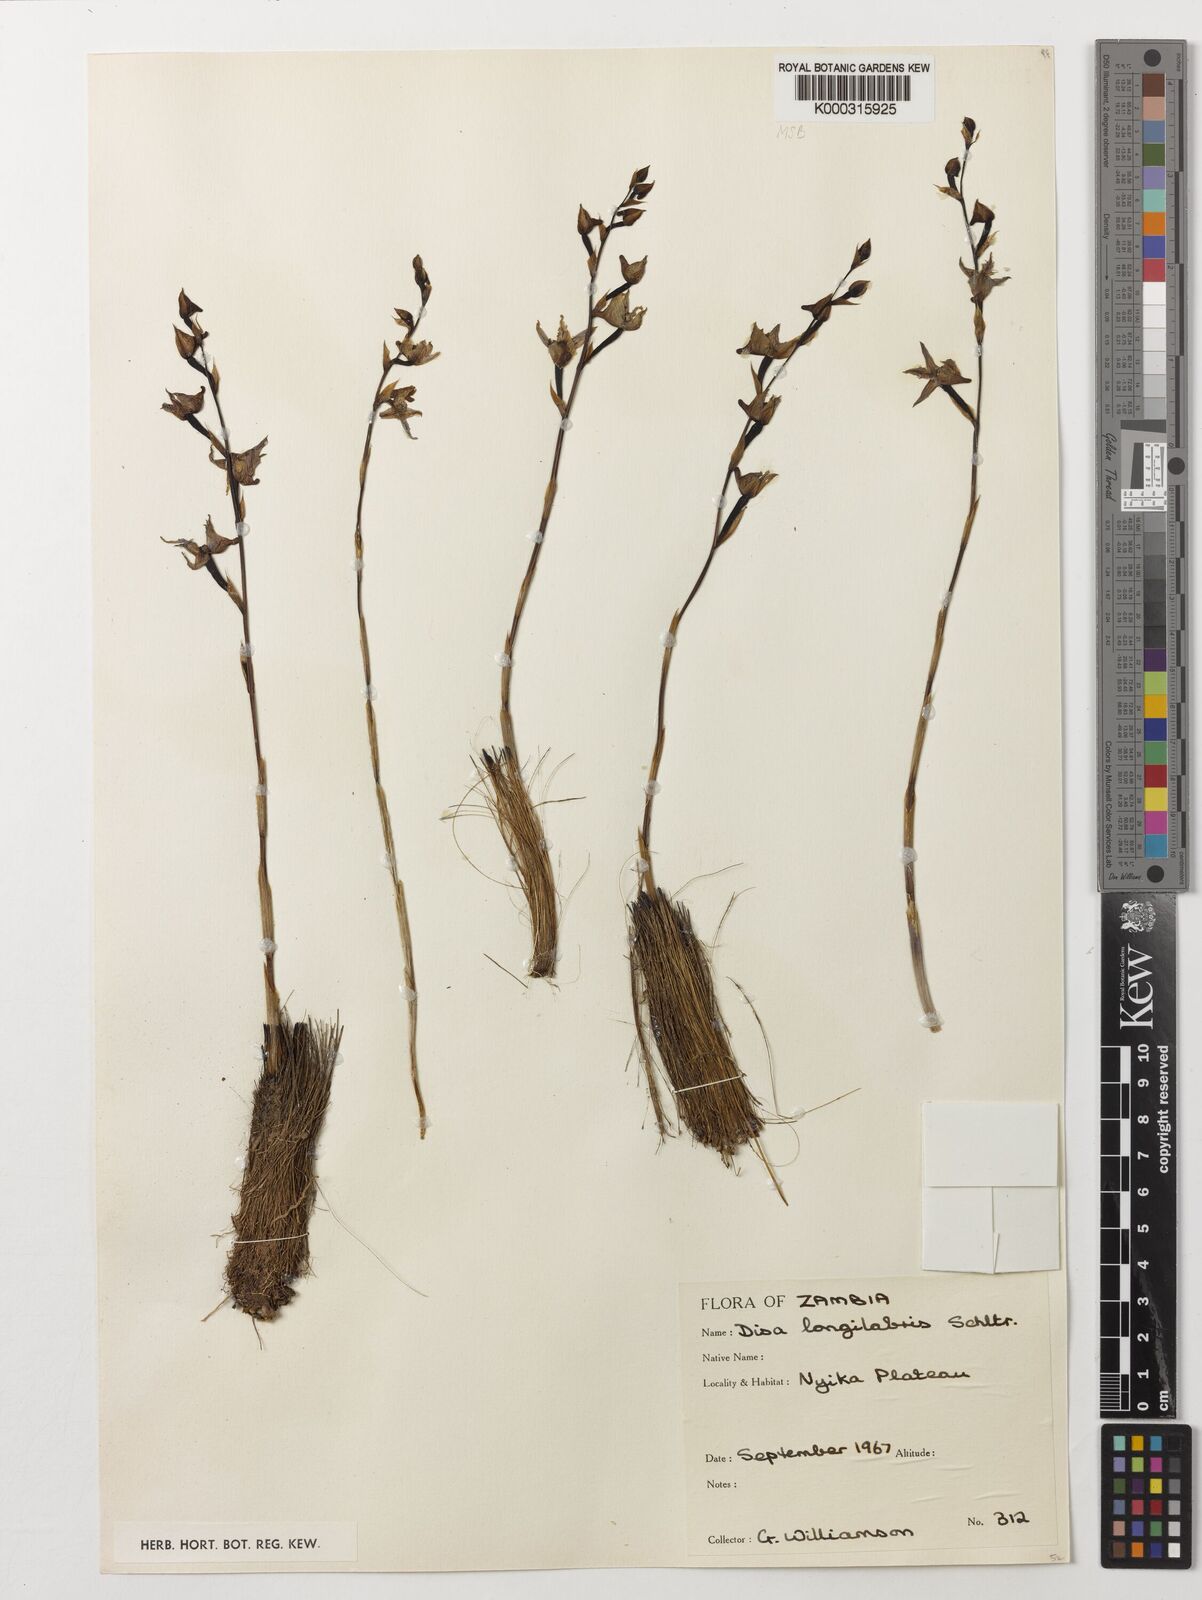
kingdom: Plantae
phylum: Tracheophyta
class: Liliopsida
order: Asparagales
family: Orchidaceae
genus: Disa
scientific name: Disa praecox
